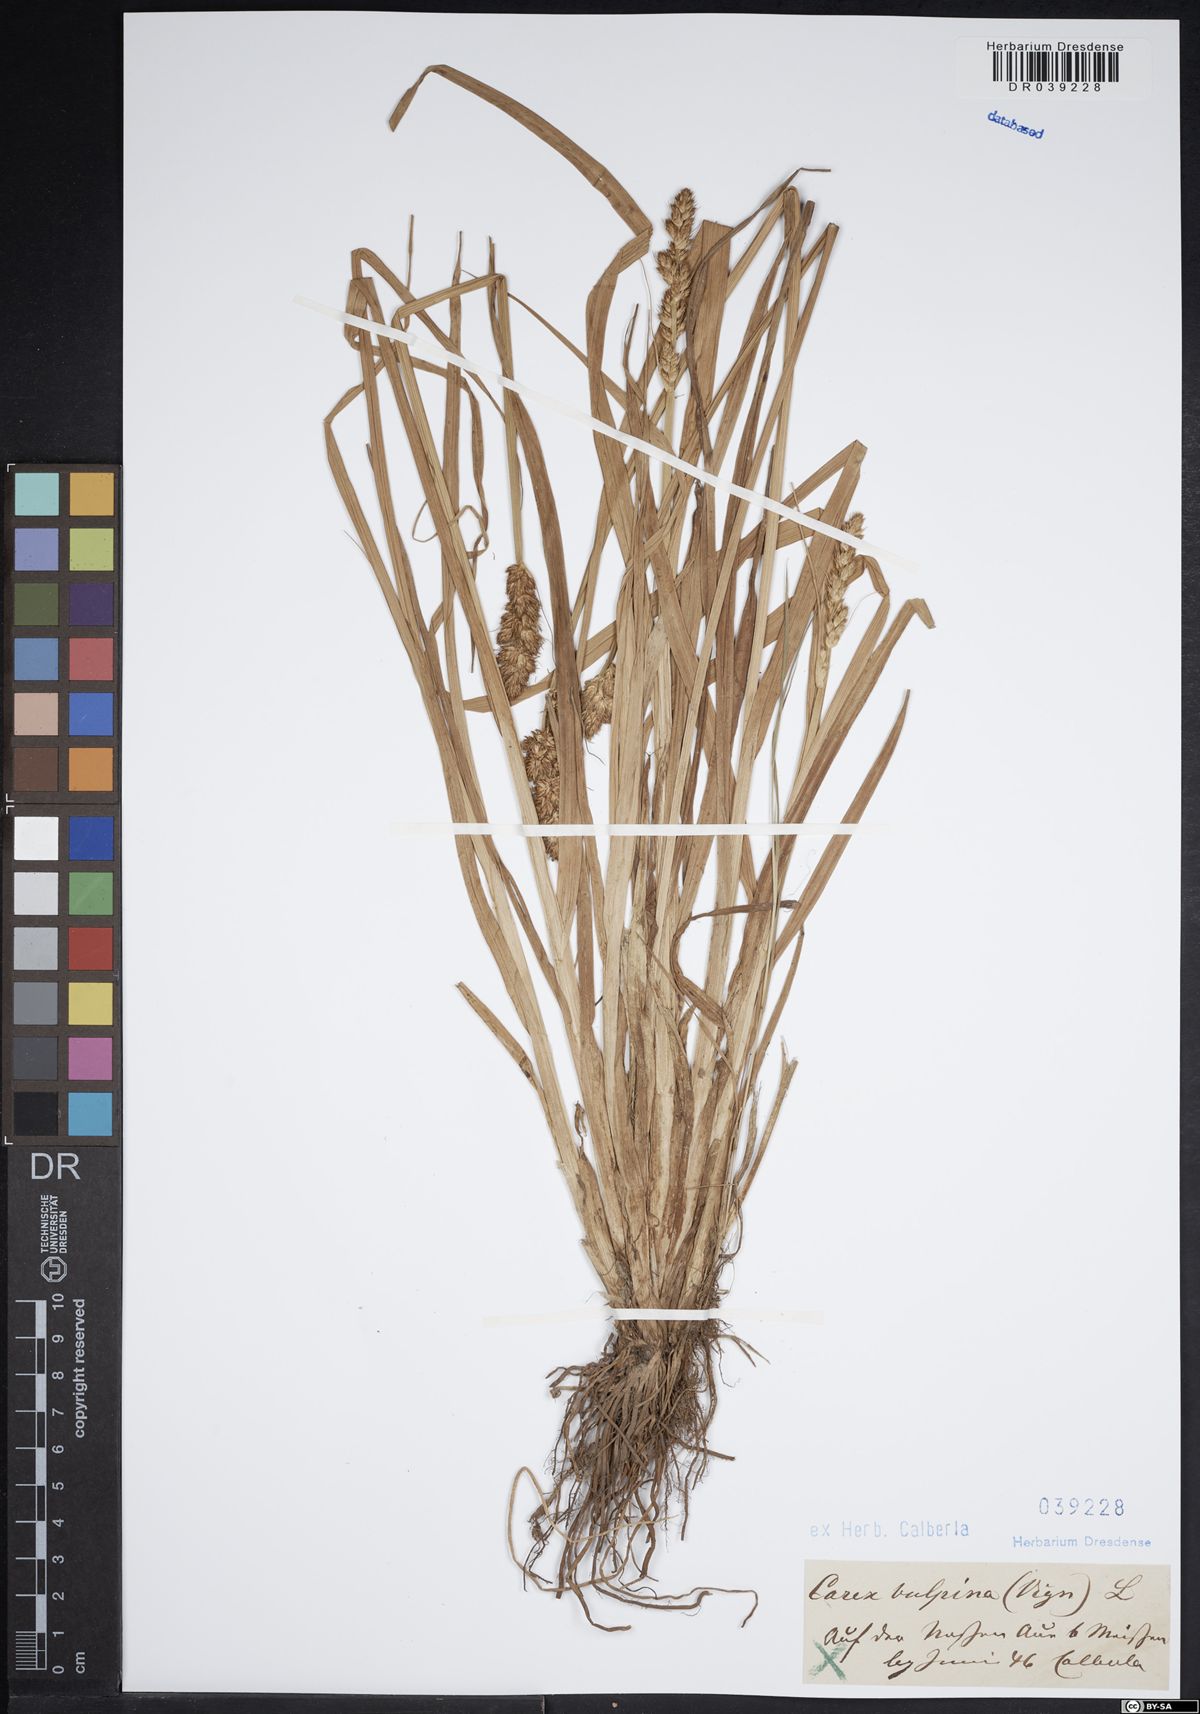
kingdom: Plantae
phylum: Tracheophyta
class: Liliopsida
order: Poales
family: Cyperaceae
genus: Carex
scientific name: Carex vulpina
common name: True fox-sedge
